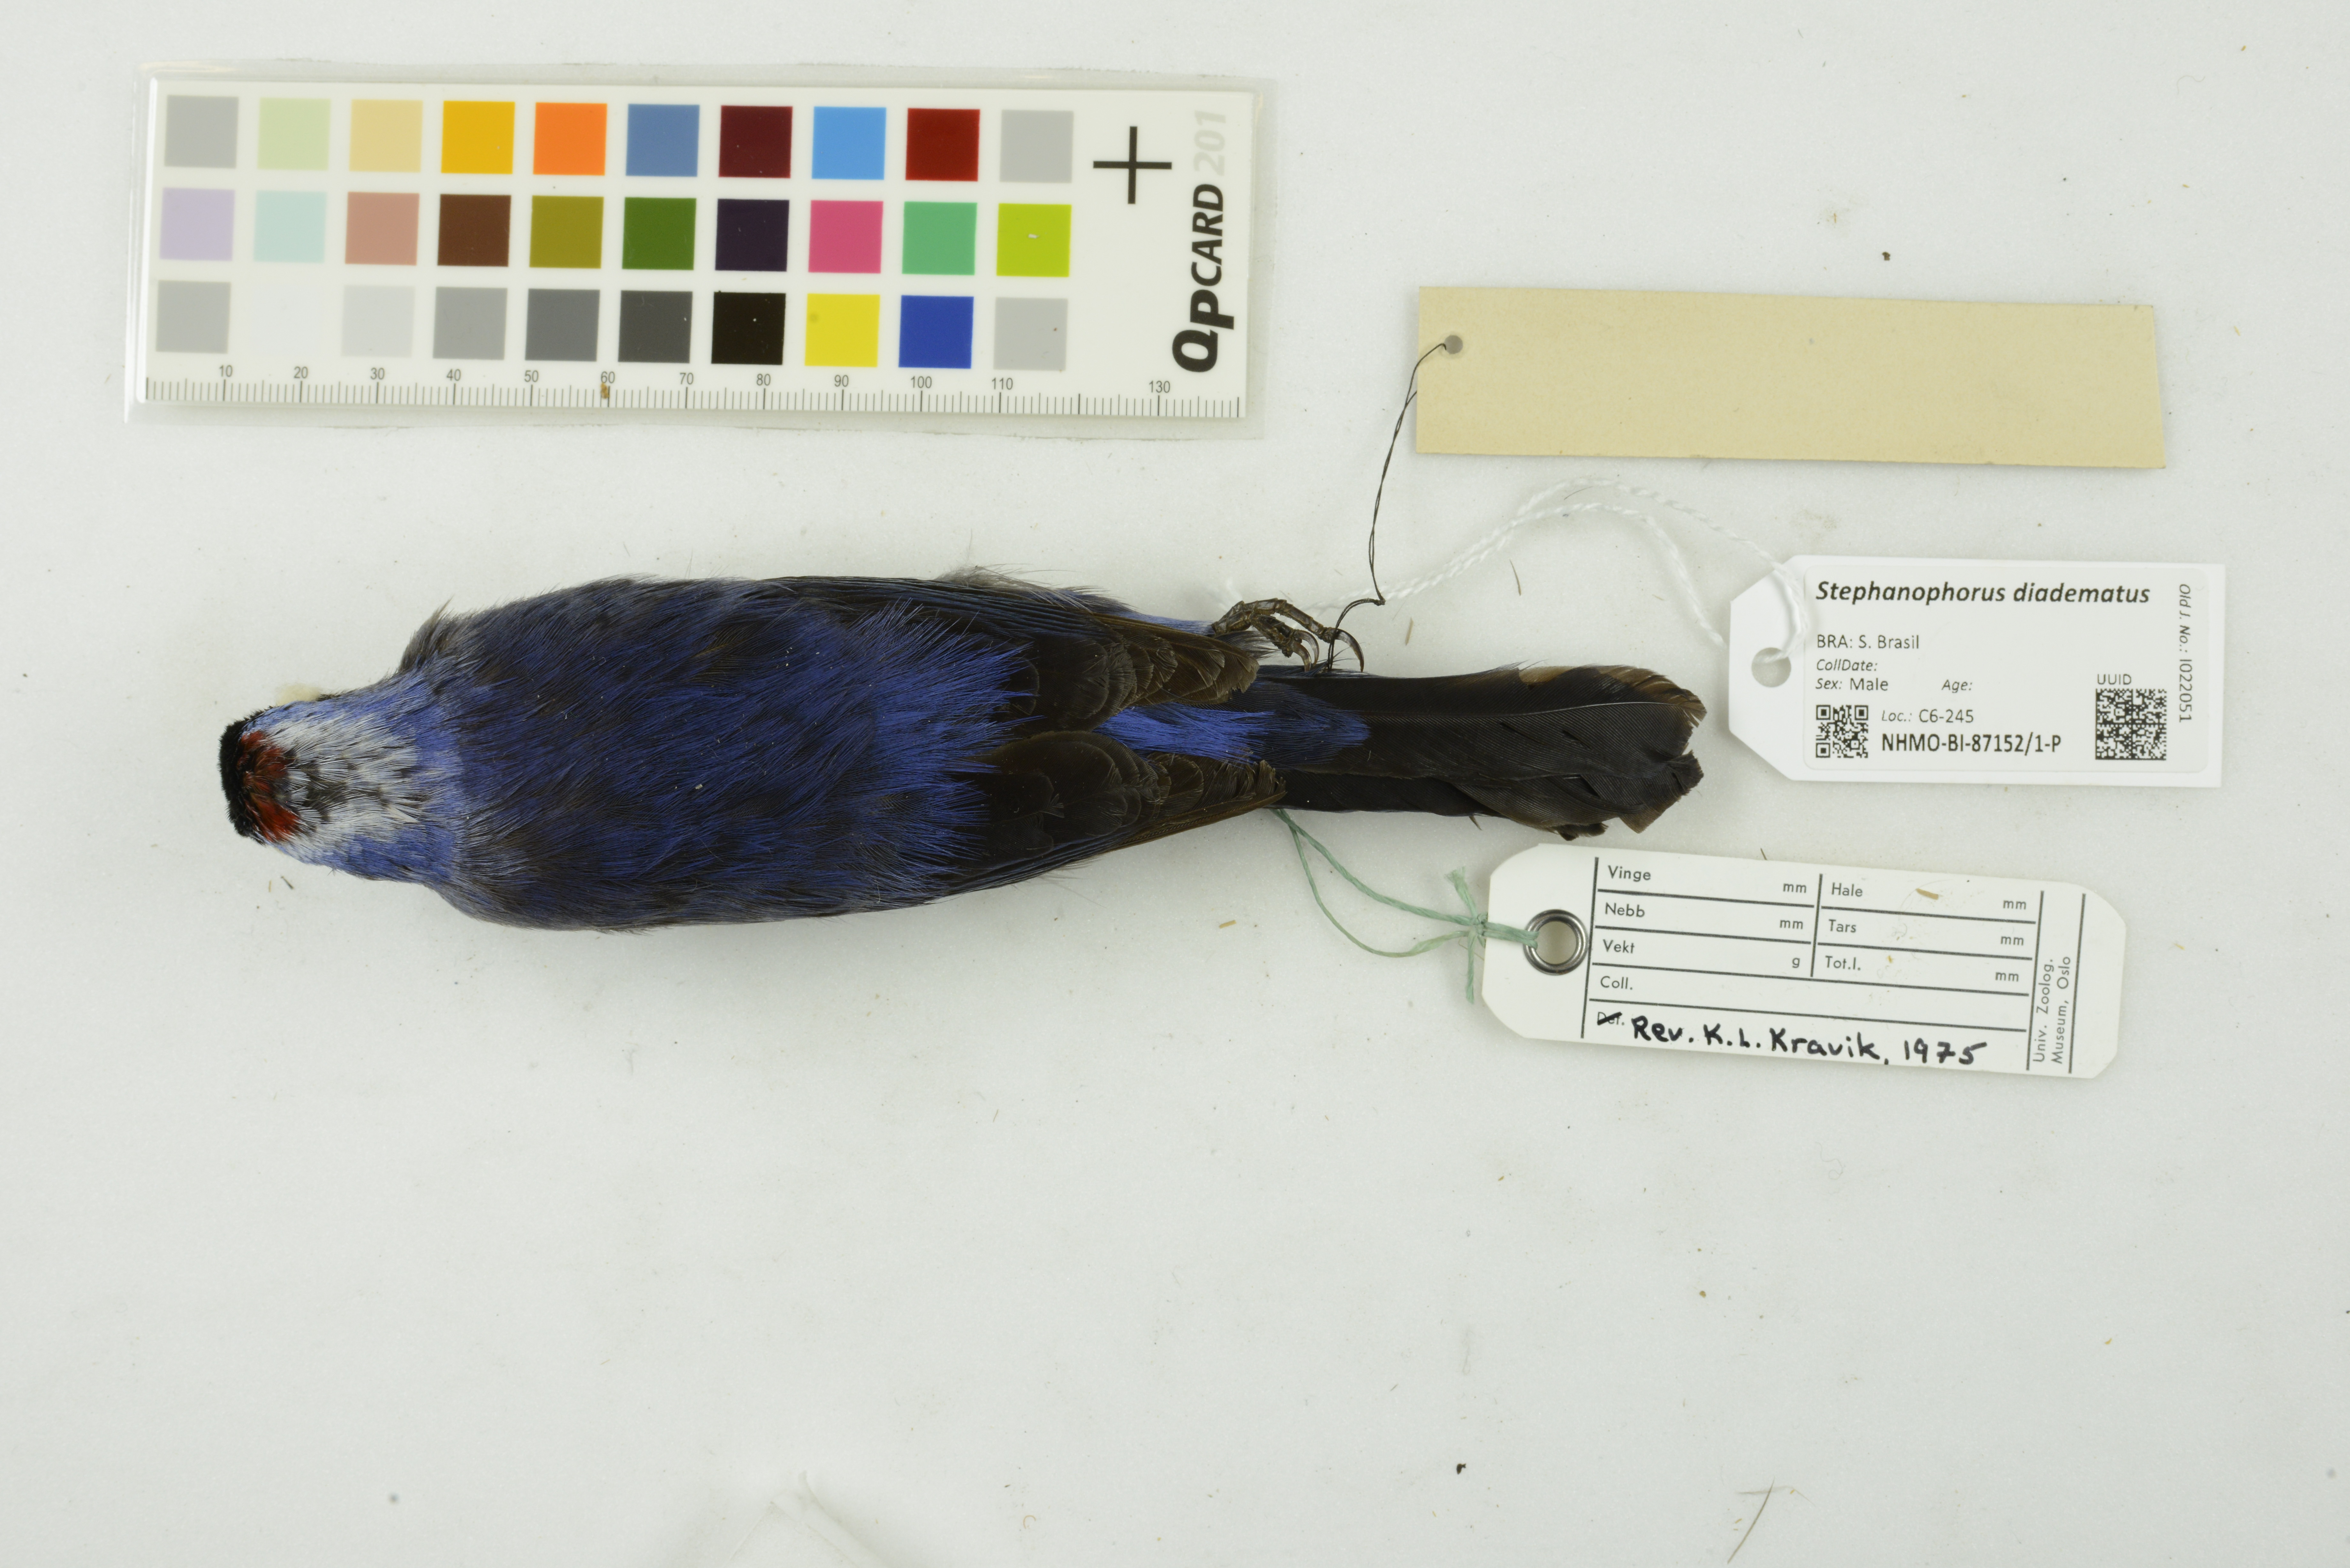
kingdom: Animalia
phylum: Chordata
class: Aves
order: Passeriformes
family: Thraupidae
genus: Stephanophorus
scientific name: Stephanophorus diadematus
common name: Diademed tanager
